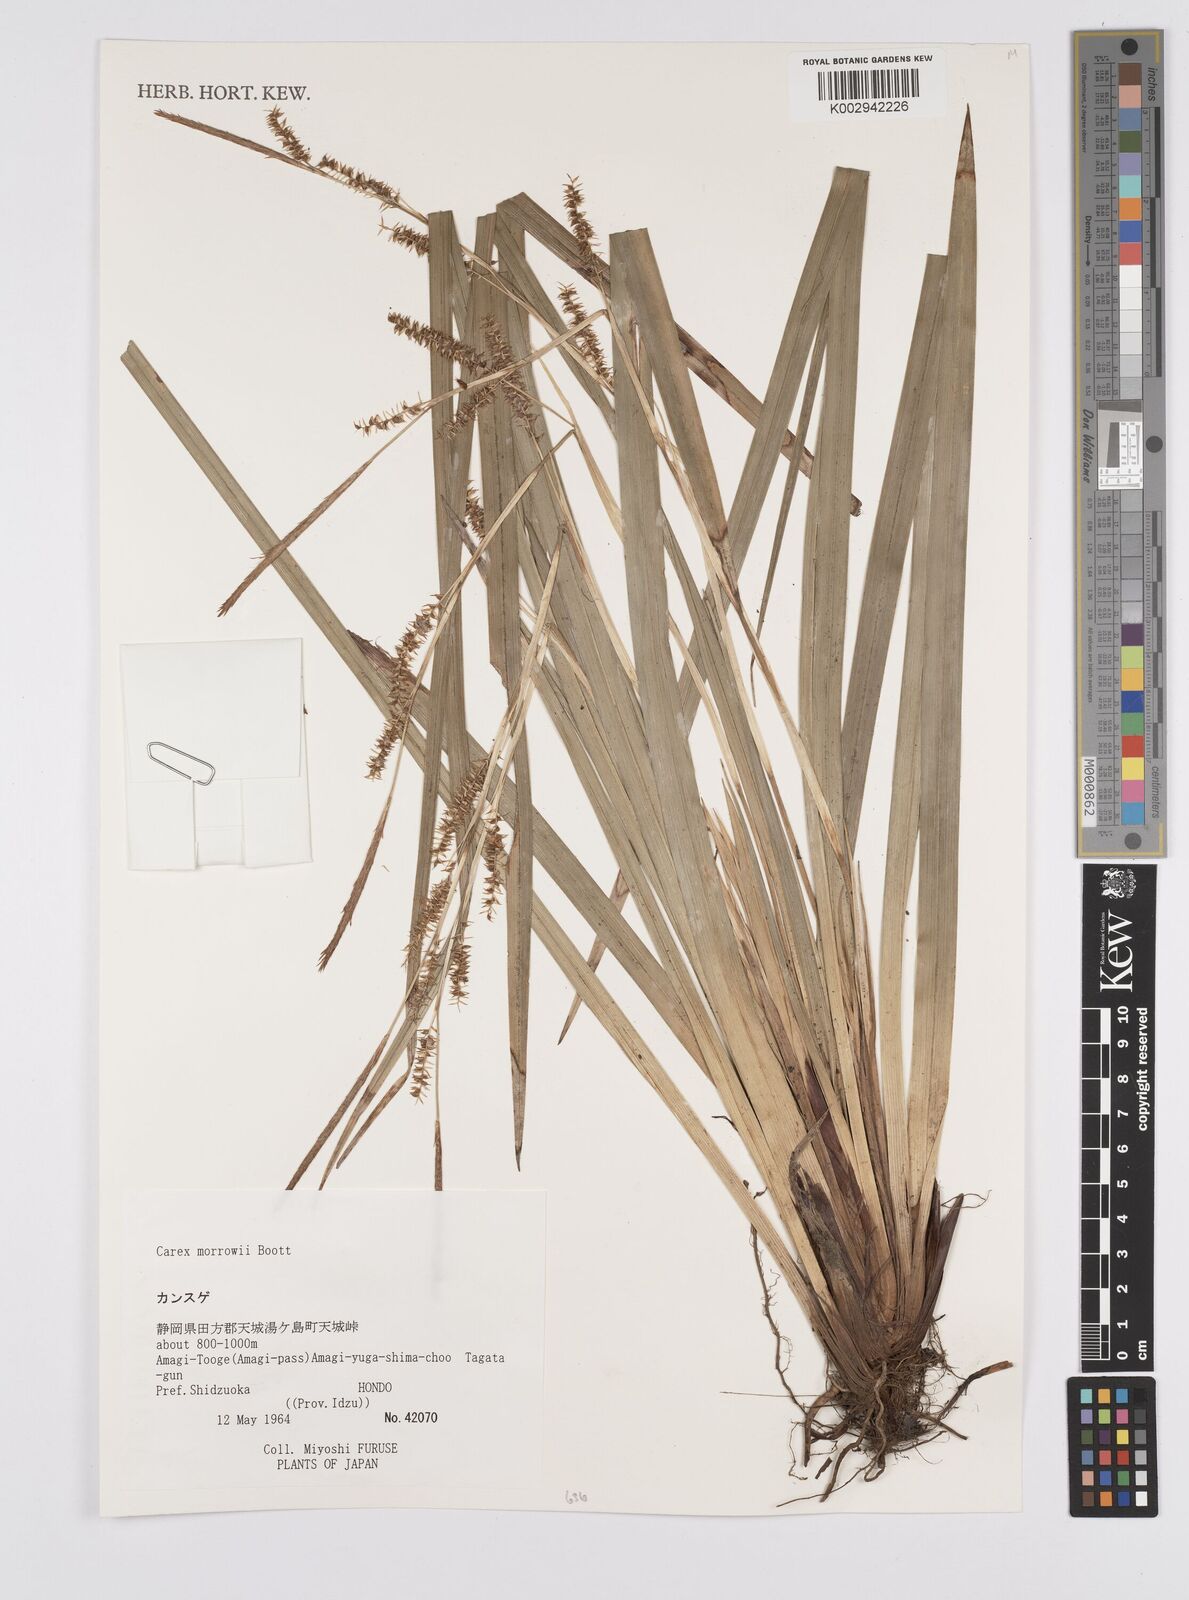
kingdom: Plantae
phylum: Tracheophyta
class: Liliopsida
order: Poales
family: Cyperaceae
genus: Carex
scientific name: Carex morrowii
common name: Japanese sedge
